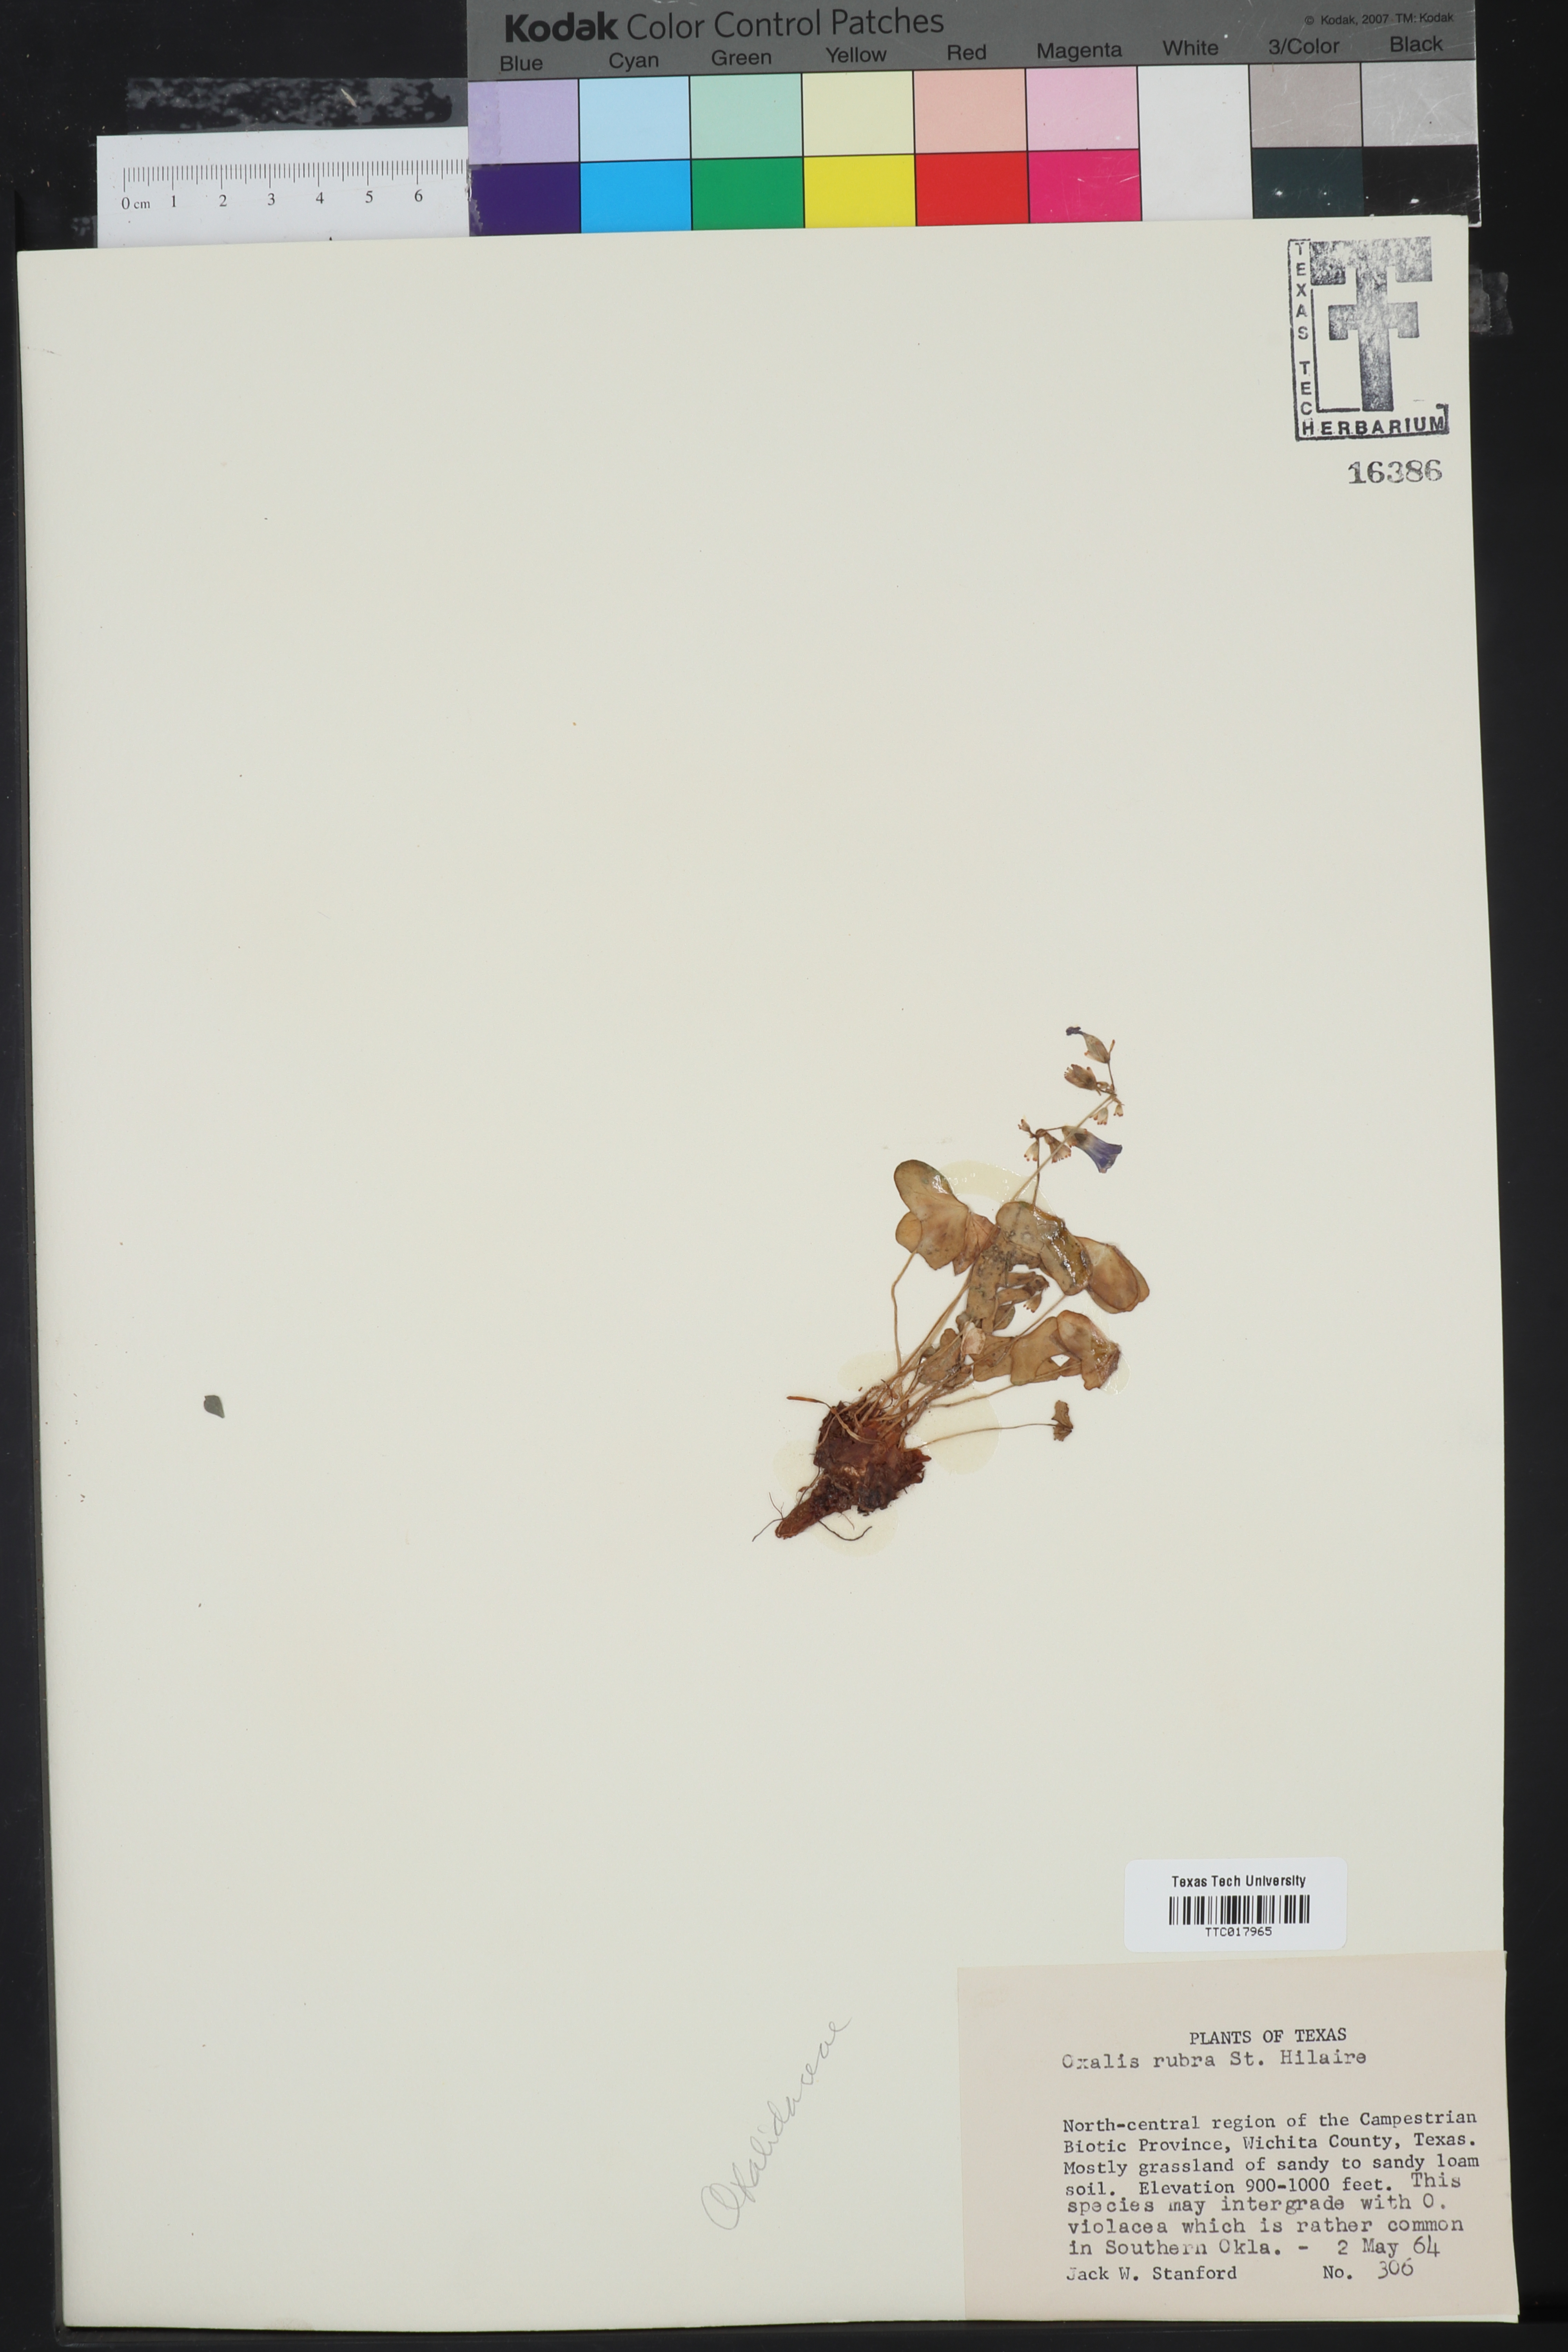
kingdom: Plantae
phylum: Tracheophyta
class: Magnoliopsida
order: Oxalidales
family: Oxalidaceae
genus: Oxalis
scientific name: Oxalis articulata
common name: Pink-sorrel
